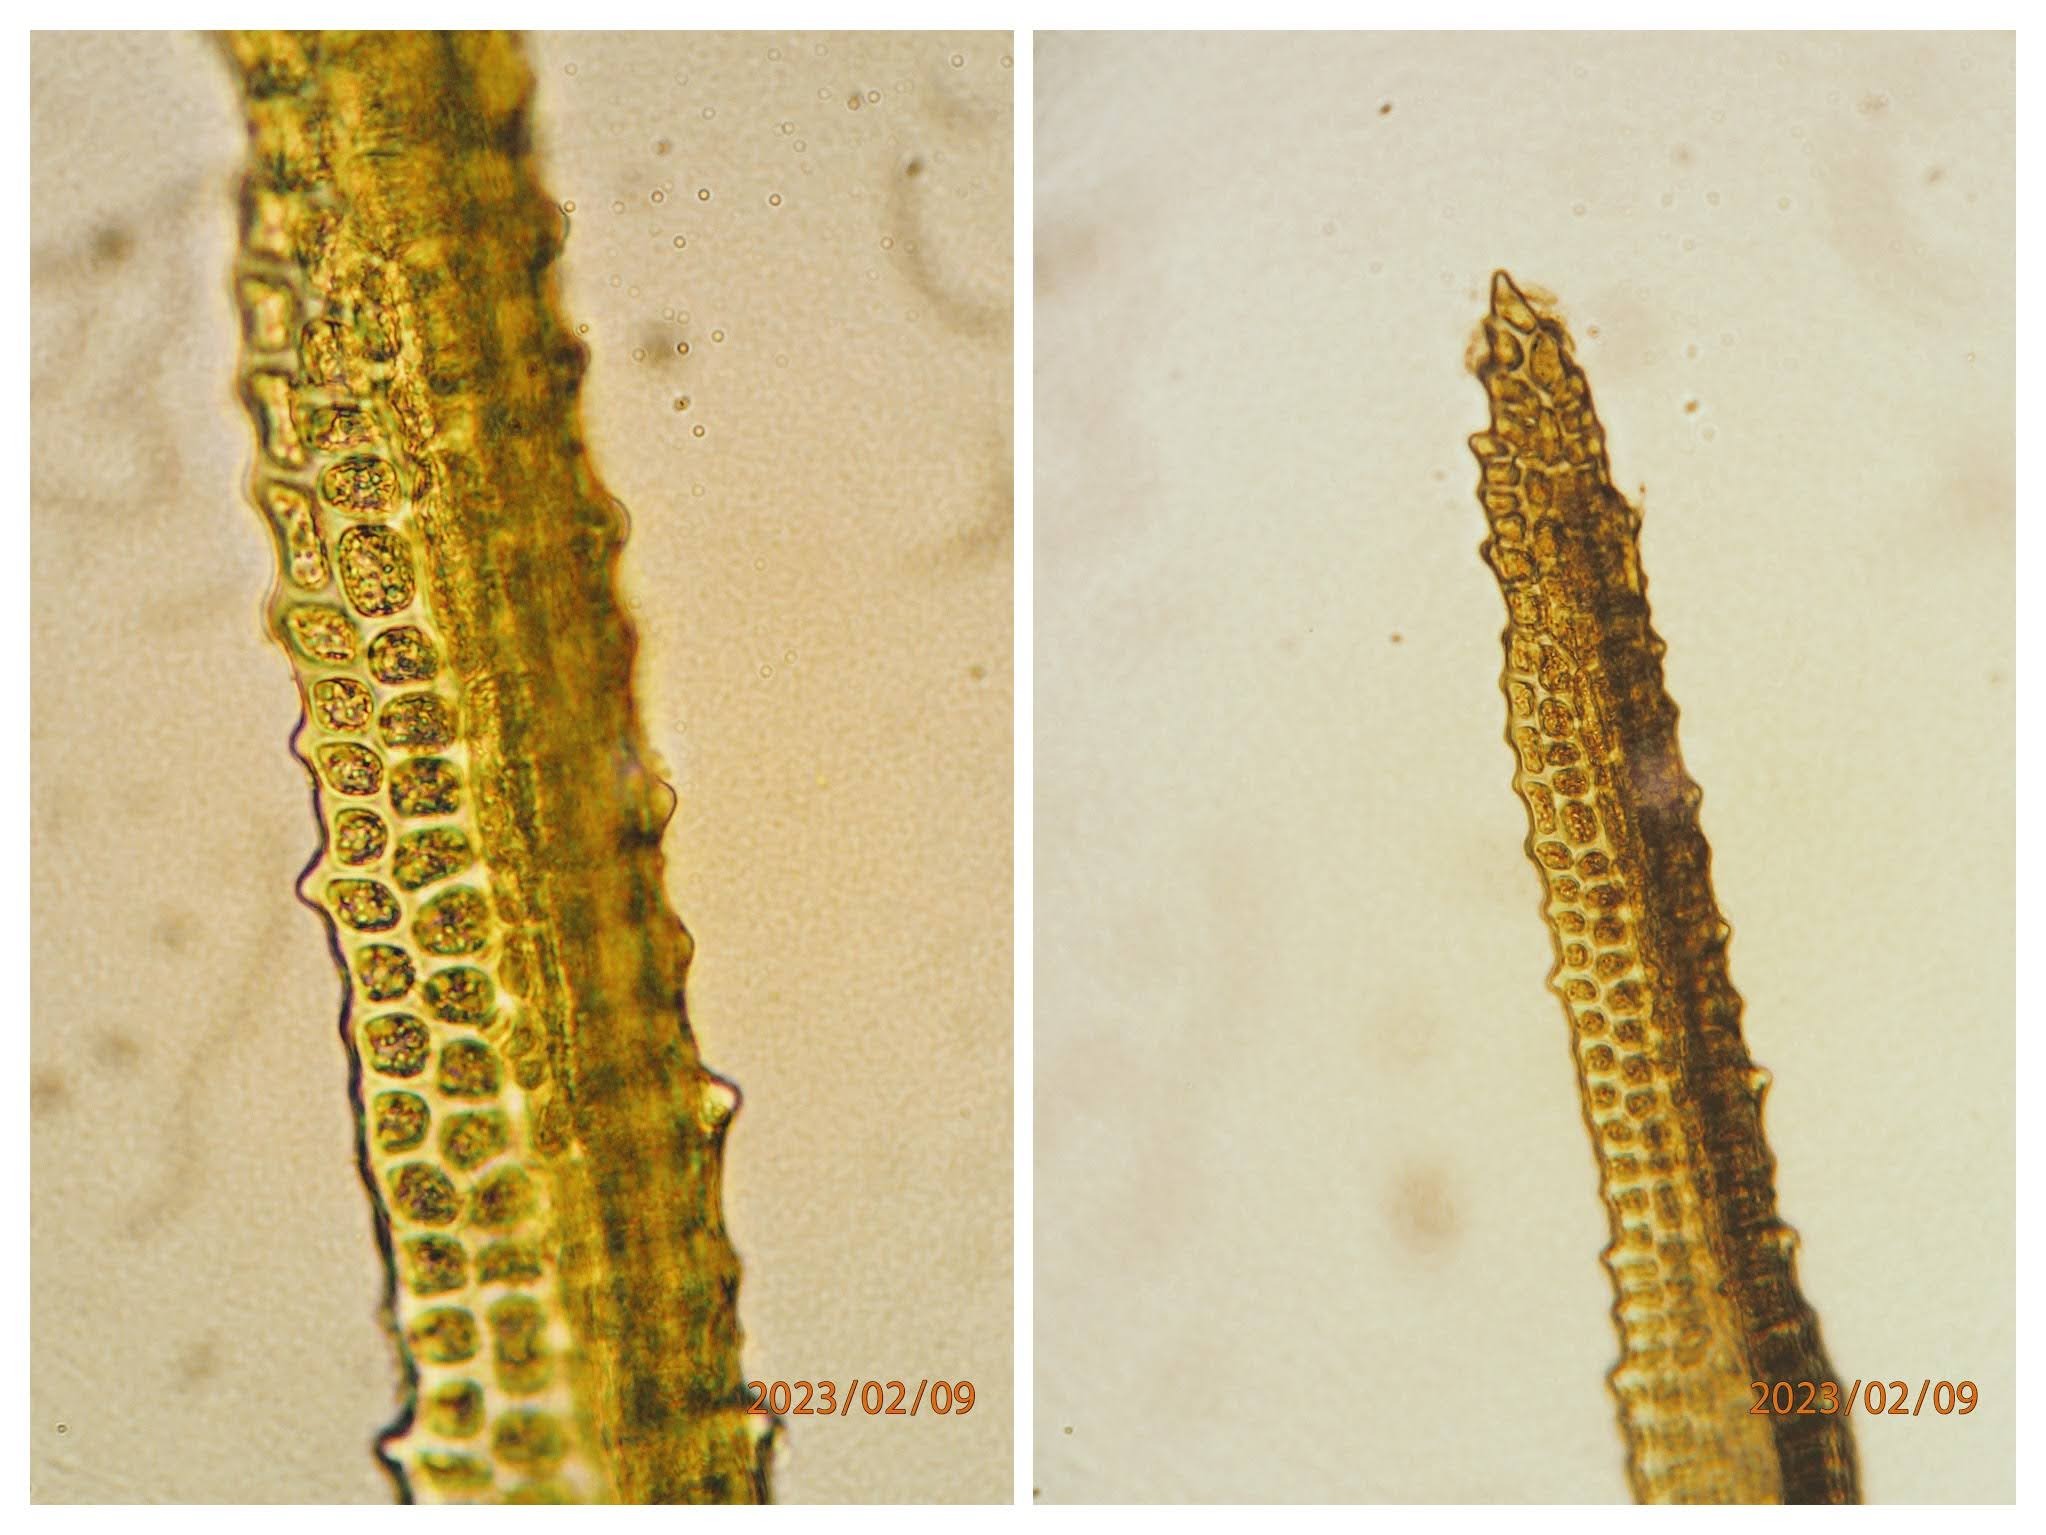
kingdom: Plantae
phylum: Bryophyta
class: Bryopsida
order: Dicranales
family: Dicranaceae
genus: Orthodicranum
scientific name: Orthodicranum montanum
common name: Tæt tyndvinge
